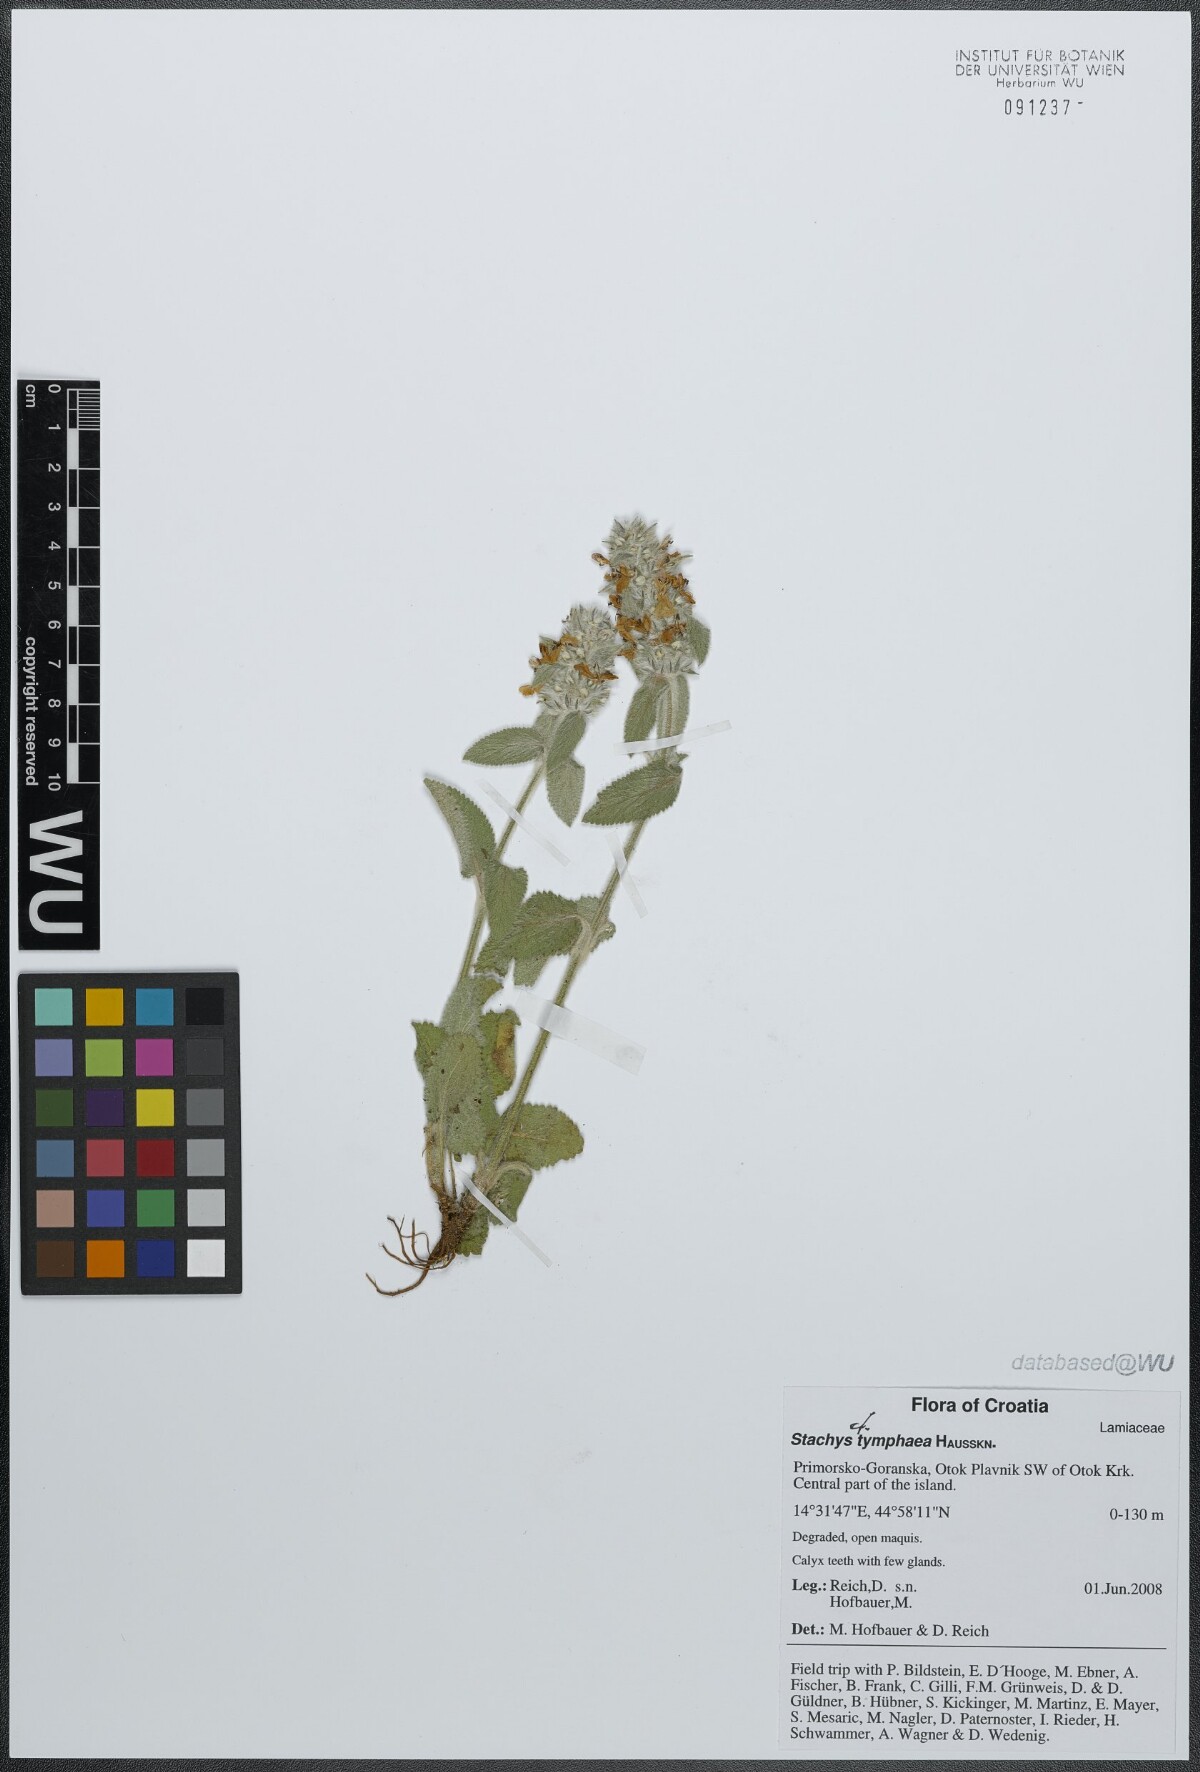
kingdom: Plantae
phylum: Tracheophyta
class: Magnoliopsida
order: Lamiales
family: Lamiaceae
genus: Stachys
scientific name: Stachys tymphaea
